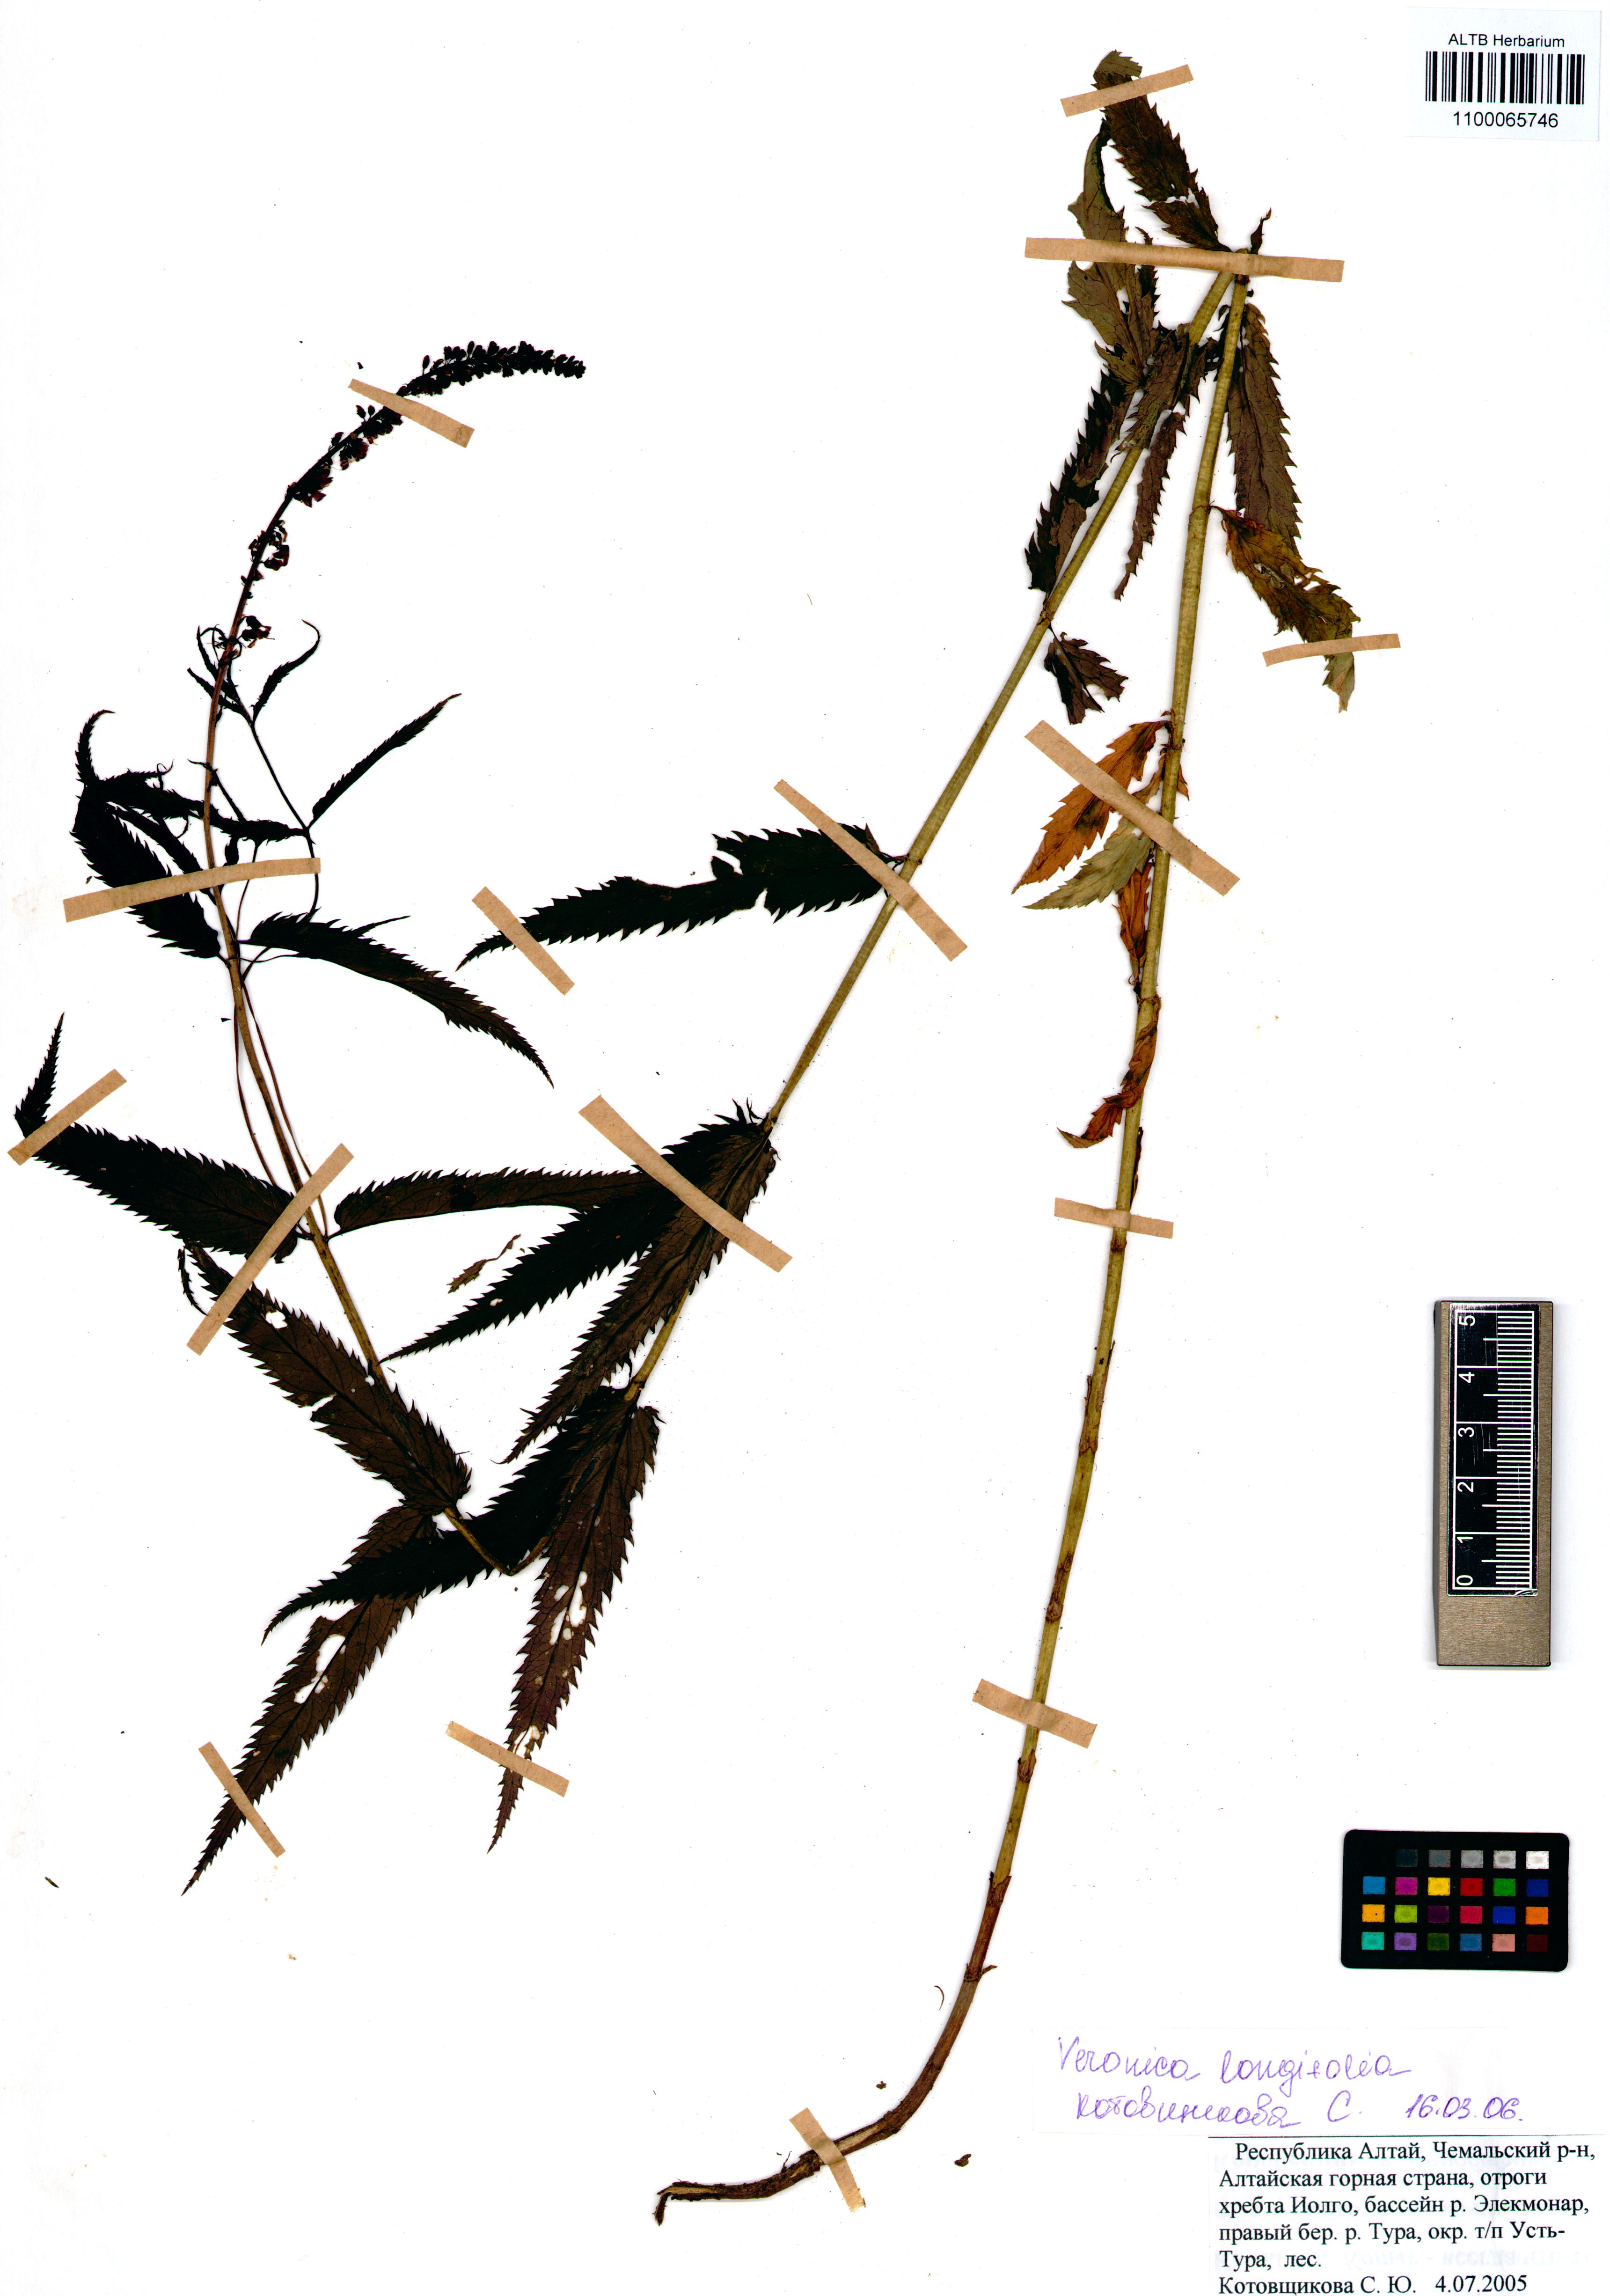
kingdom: Plantae
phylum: Tracheophyta
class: Magnoliopsida
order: Lamiales
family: Plantaginaceae
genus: Veronica
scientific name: Veronica longifolia
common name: Garden speedwell
